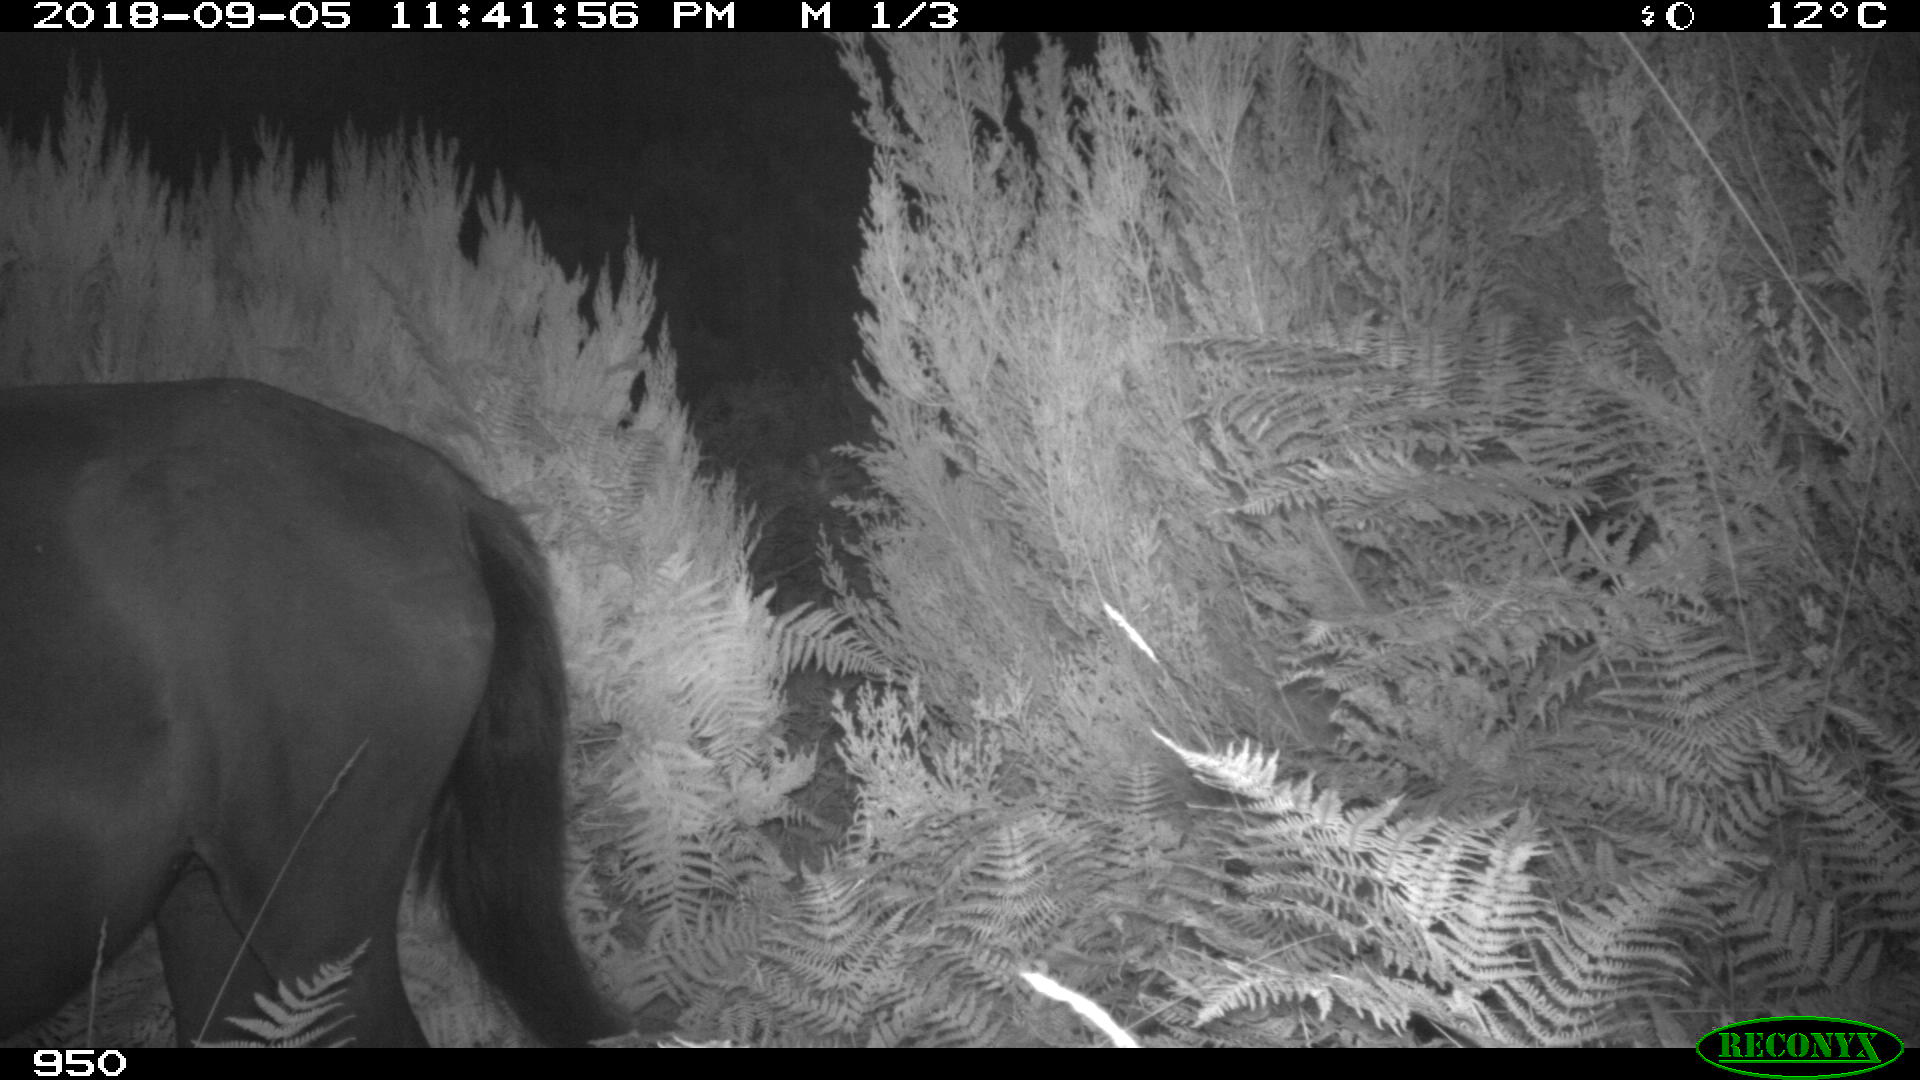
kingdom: Animalia
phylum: Chordata
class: Mammalia
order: Perissodactyla
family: Equidae
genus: Equus
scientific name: Equus caballus
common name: Horse
